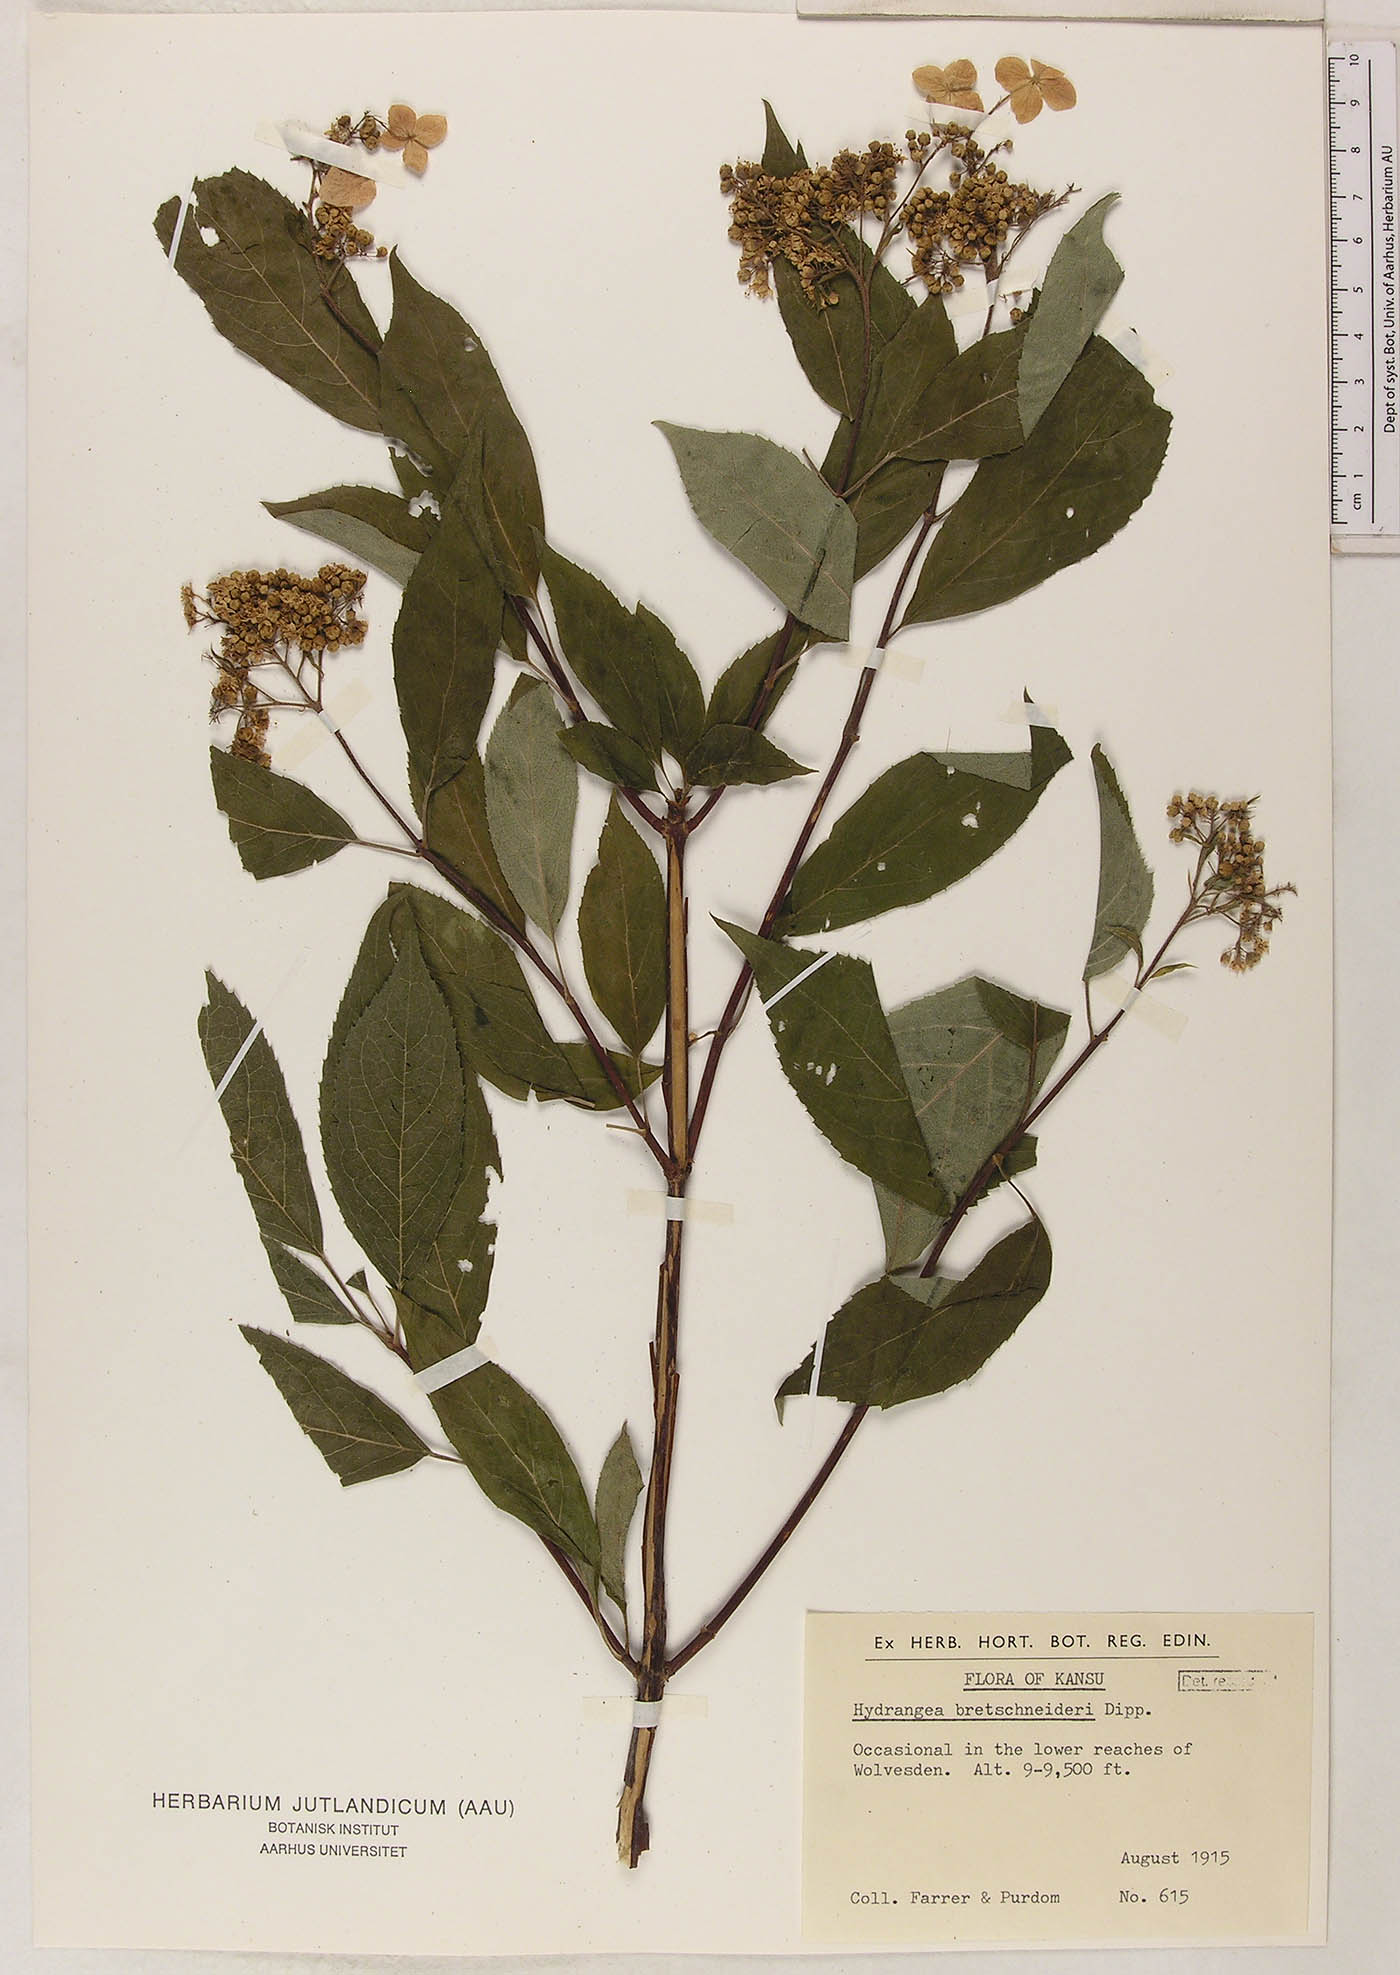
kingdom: Plantae
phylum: Tracheophyta
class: Magnoliopsida
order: Cornales
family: Hydrangeaceae
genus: Hydrangea
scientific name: Hydrangea bretschneideri
